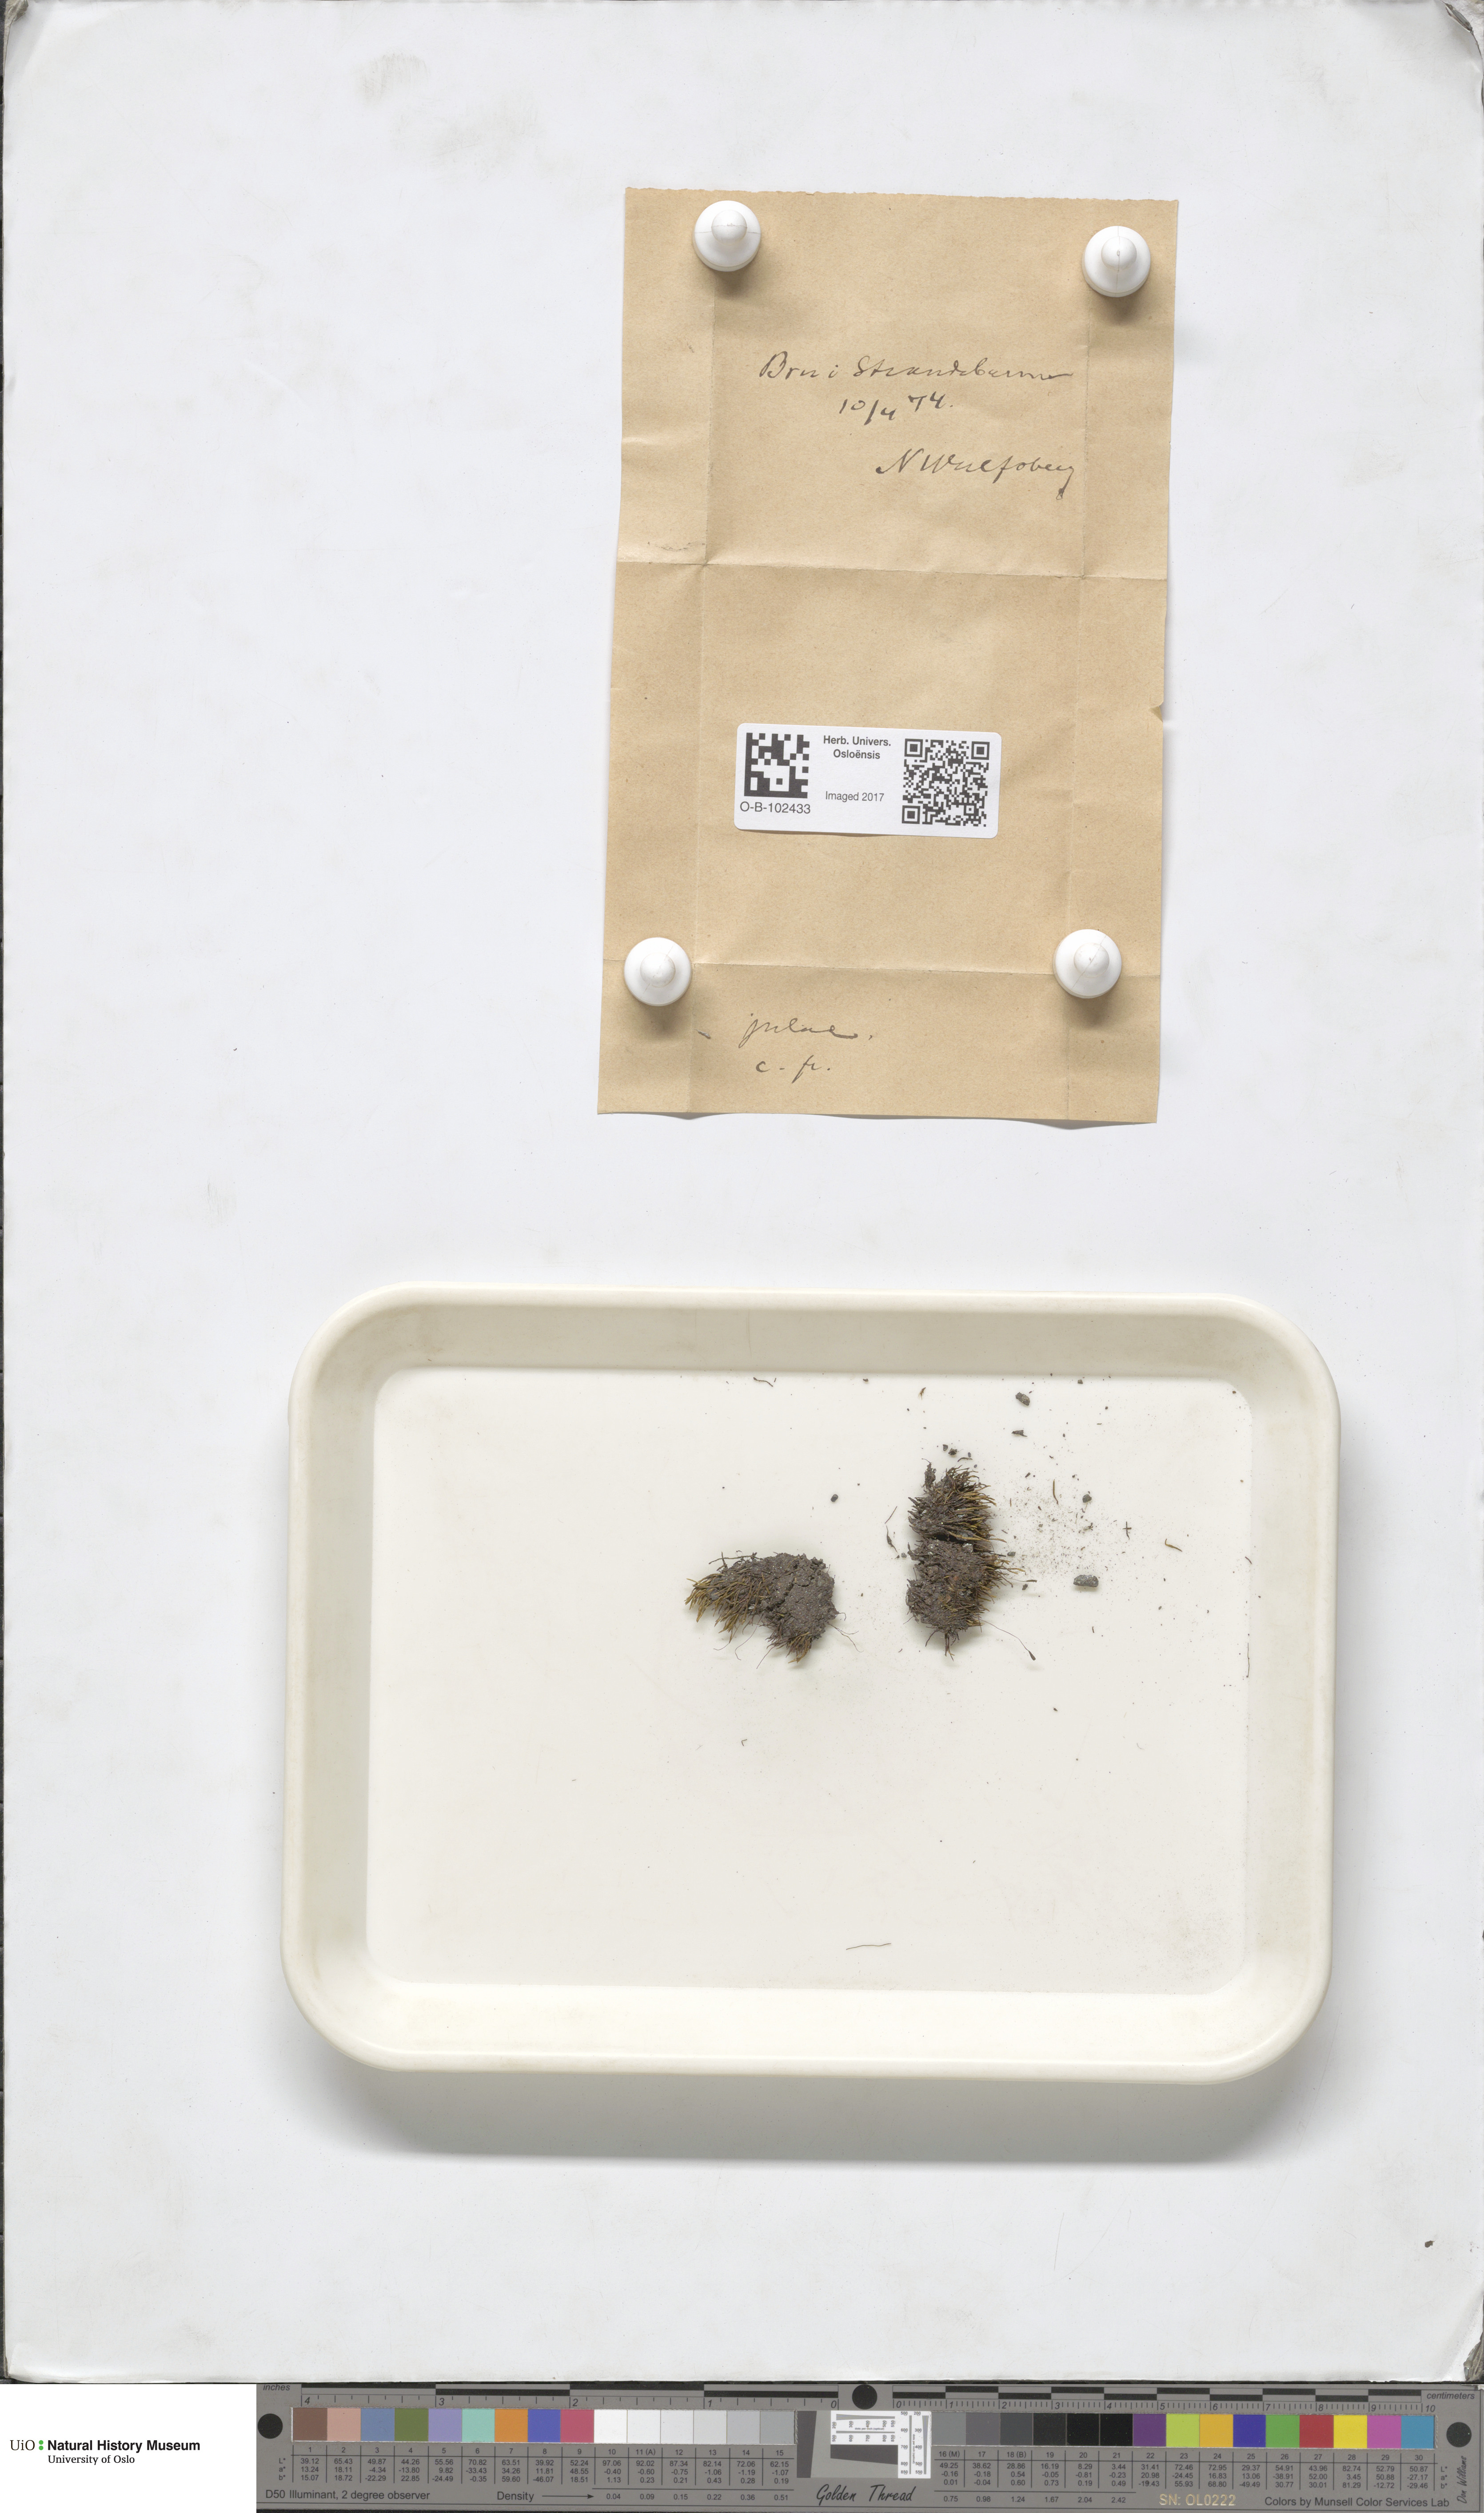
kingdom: Plantae
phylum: Bryophyta
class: Bryopsida
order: Bryales
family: Bryaceae
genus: Anomobryum
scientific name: Anomobryum julaceum
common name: Slender silver moss
